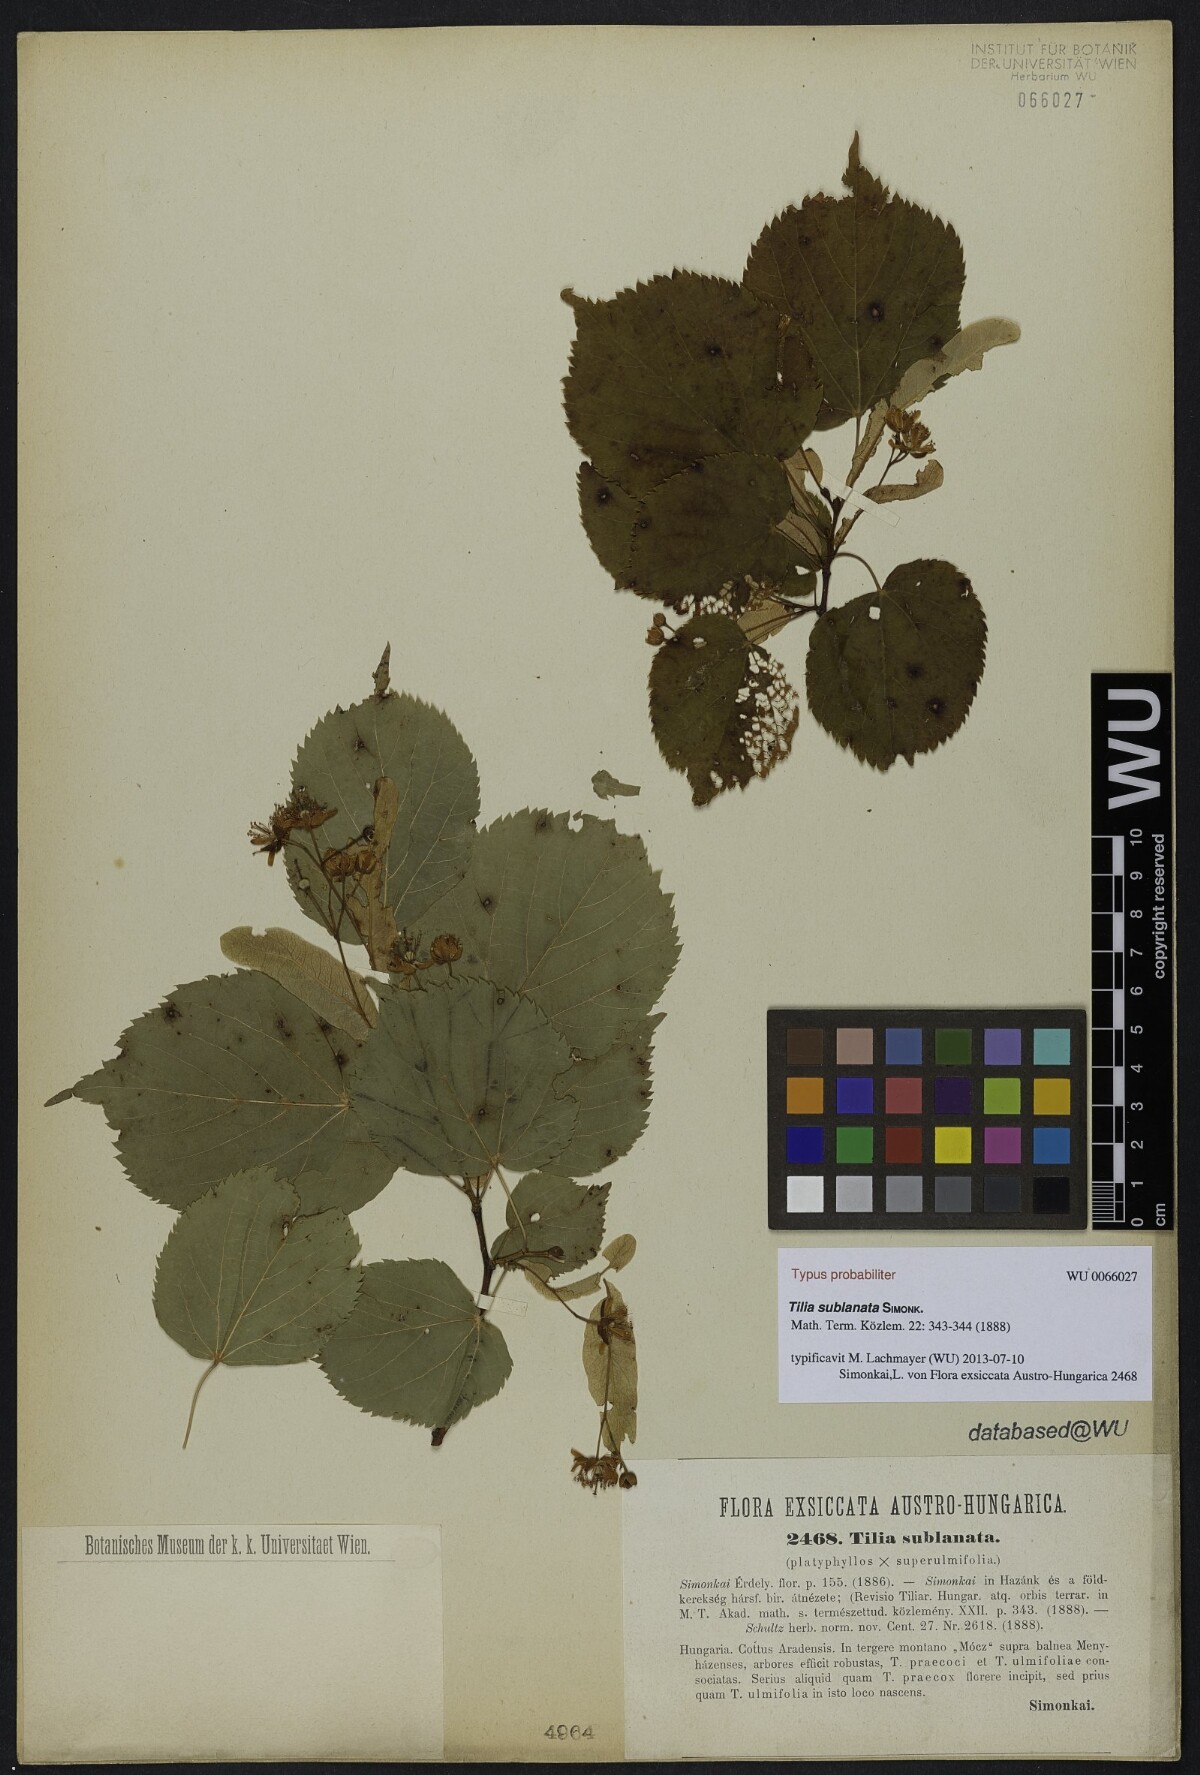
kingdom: Plantae
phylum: Tracheophyta
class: Magnoliopsida
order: Malvales
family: Malvaceae
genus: Tilia
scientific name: Tilia
